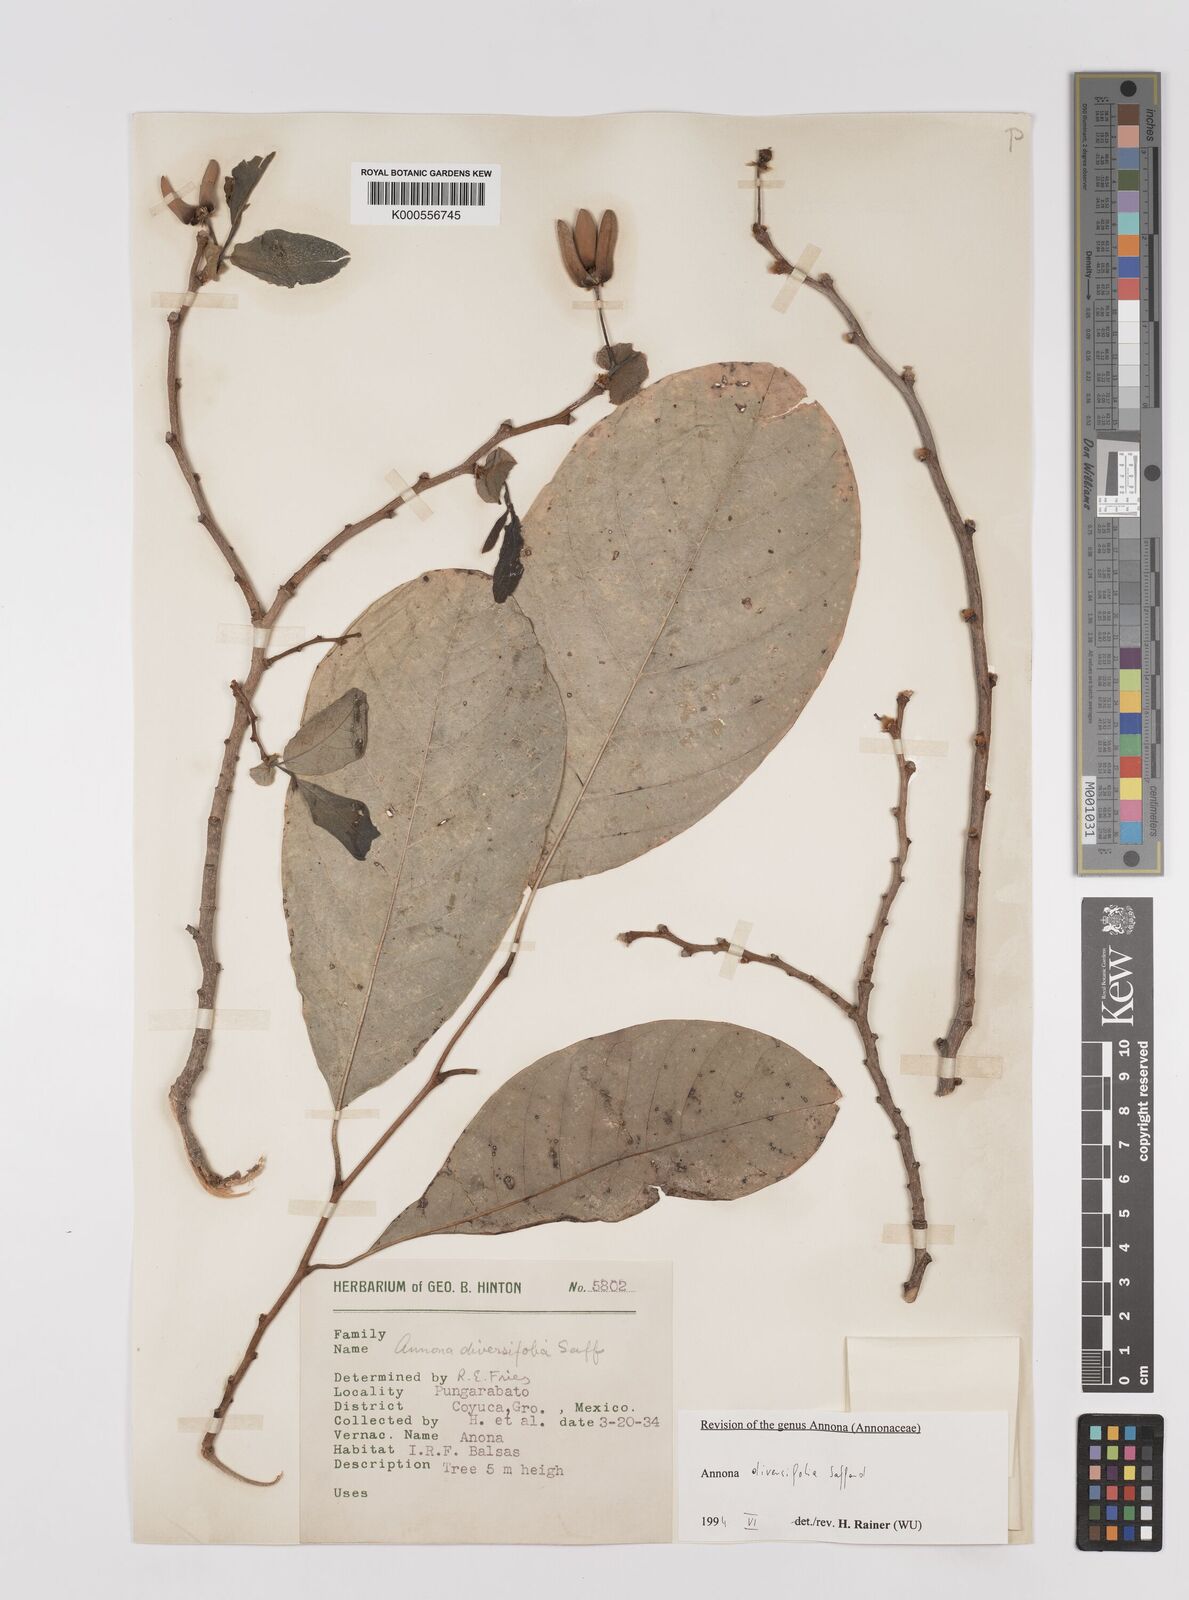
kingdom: Plantae
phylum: Tracheophyta
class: Magnoliopsida
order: Magnoliales
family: Annonaceae
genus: Annona
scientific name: Annona macroprophyllata
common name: Ilama
